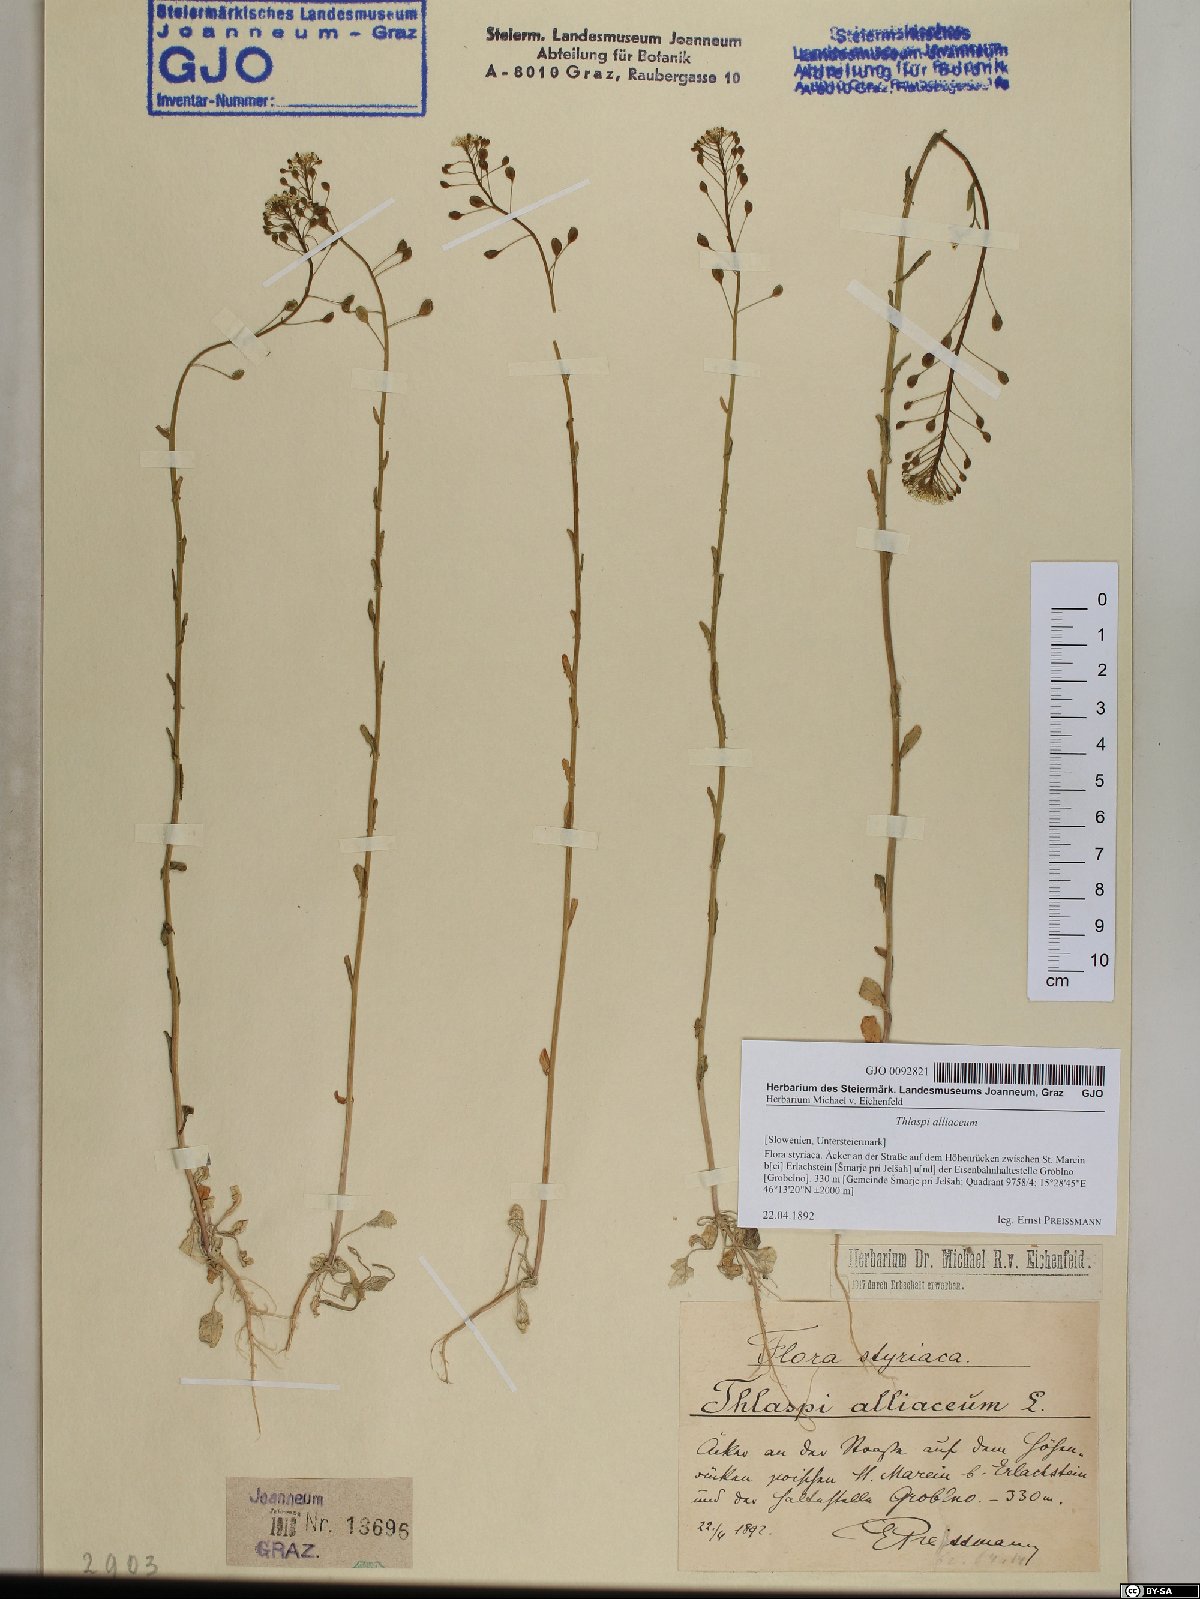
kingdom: Plantae
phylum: Tracheophyta
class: Magnoliopsida
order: Brassicales
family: Brassicaceae
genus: Mummenhoffia
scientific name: Mummenhoffia alliacea
